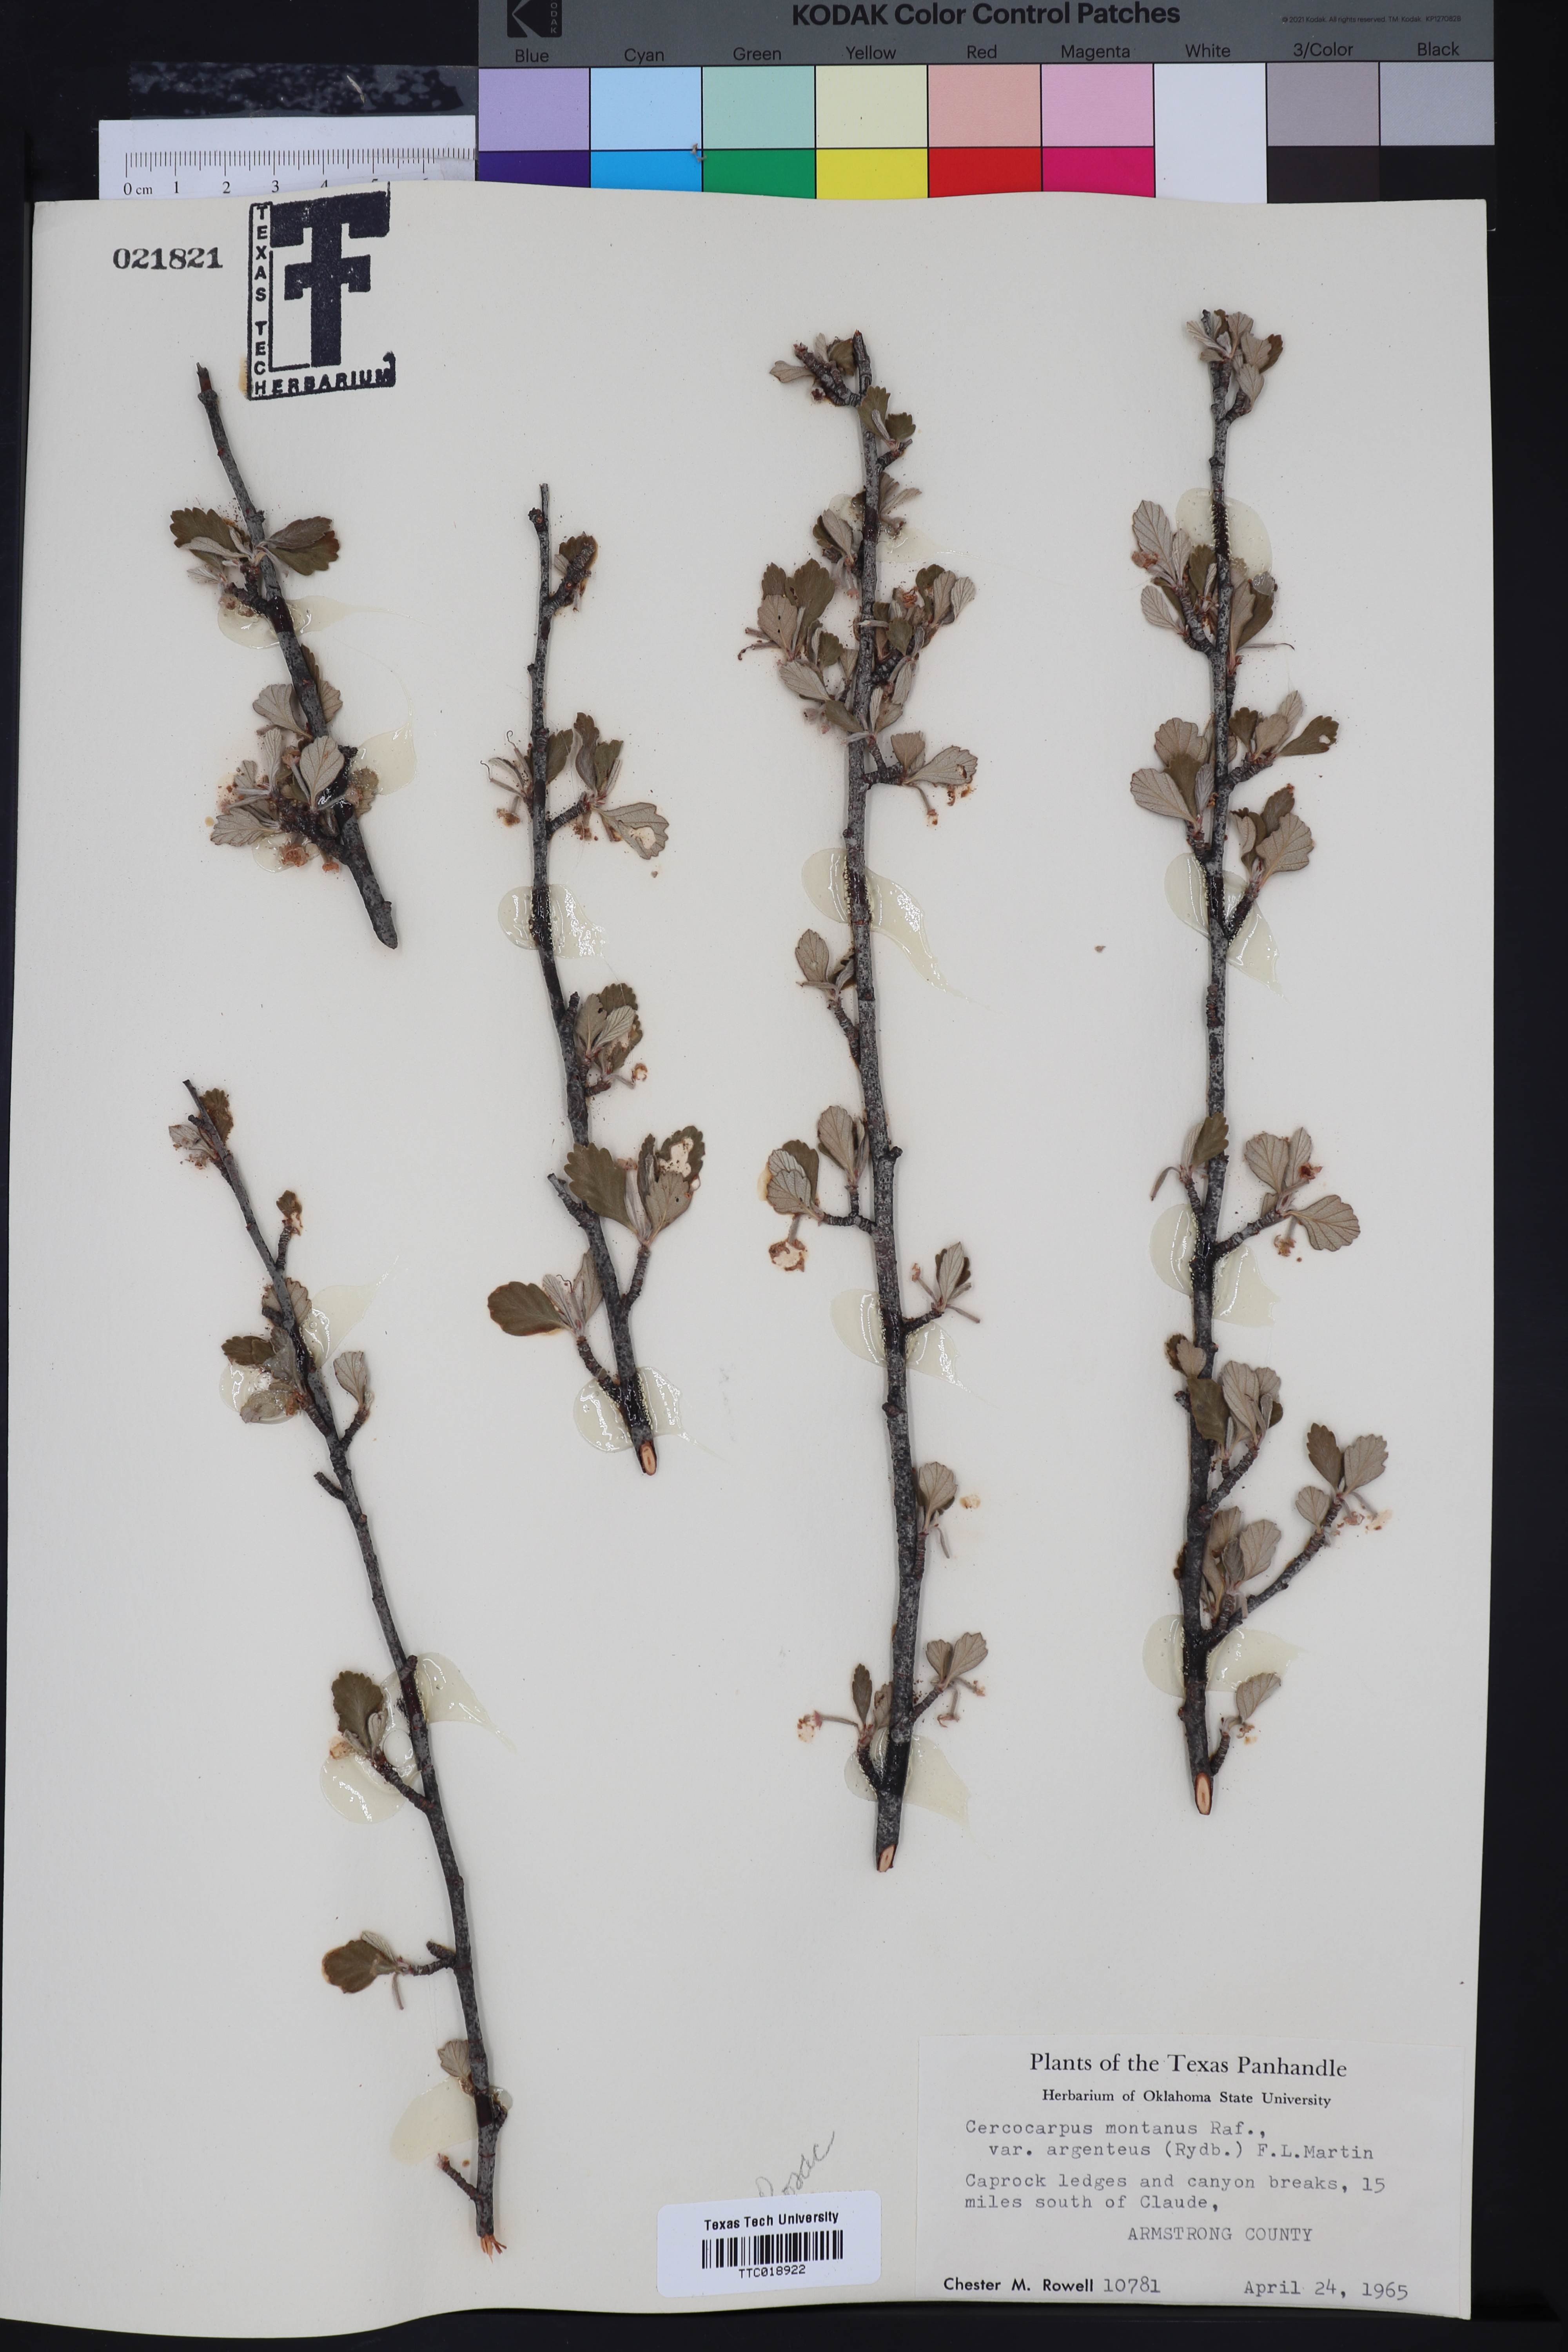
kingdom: Plantae
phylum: Tracheophyta
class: Magnoliopsida
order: Rosales
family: Rosaceae
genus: Cercocarpus
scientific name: Cercocarpus intricatus
